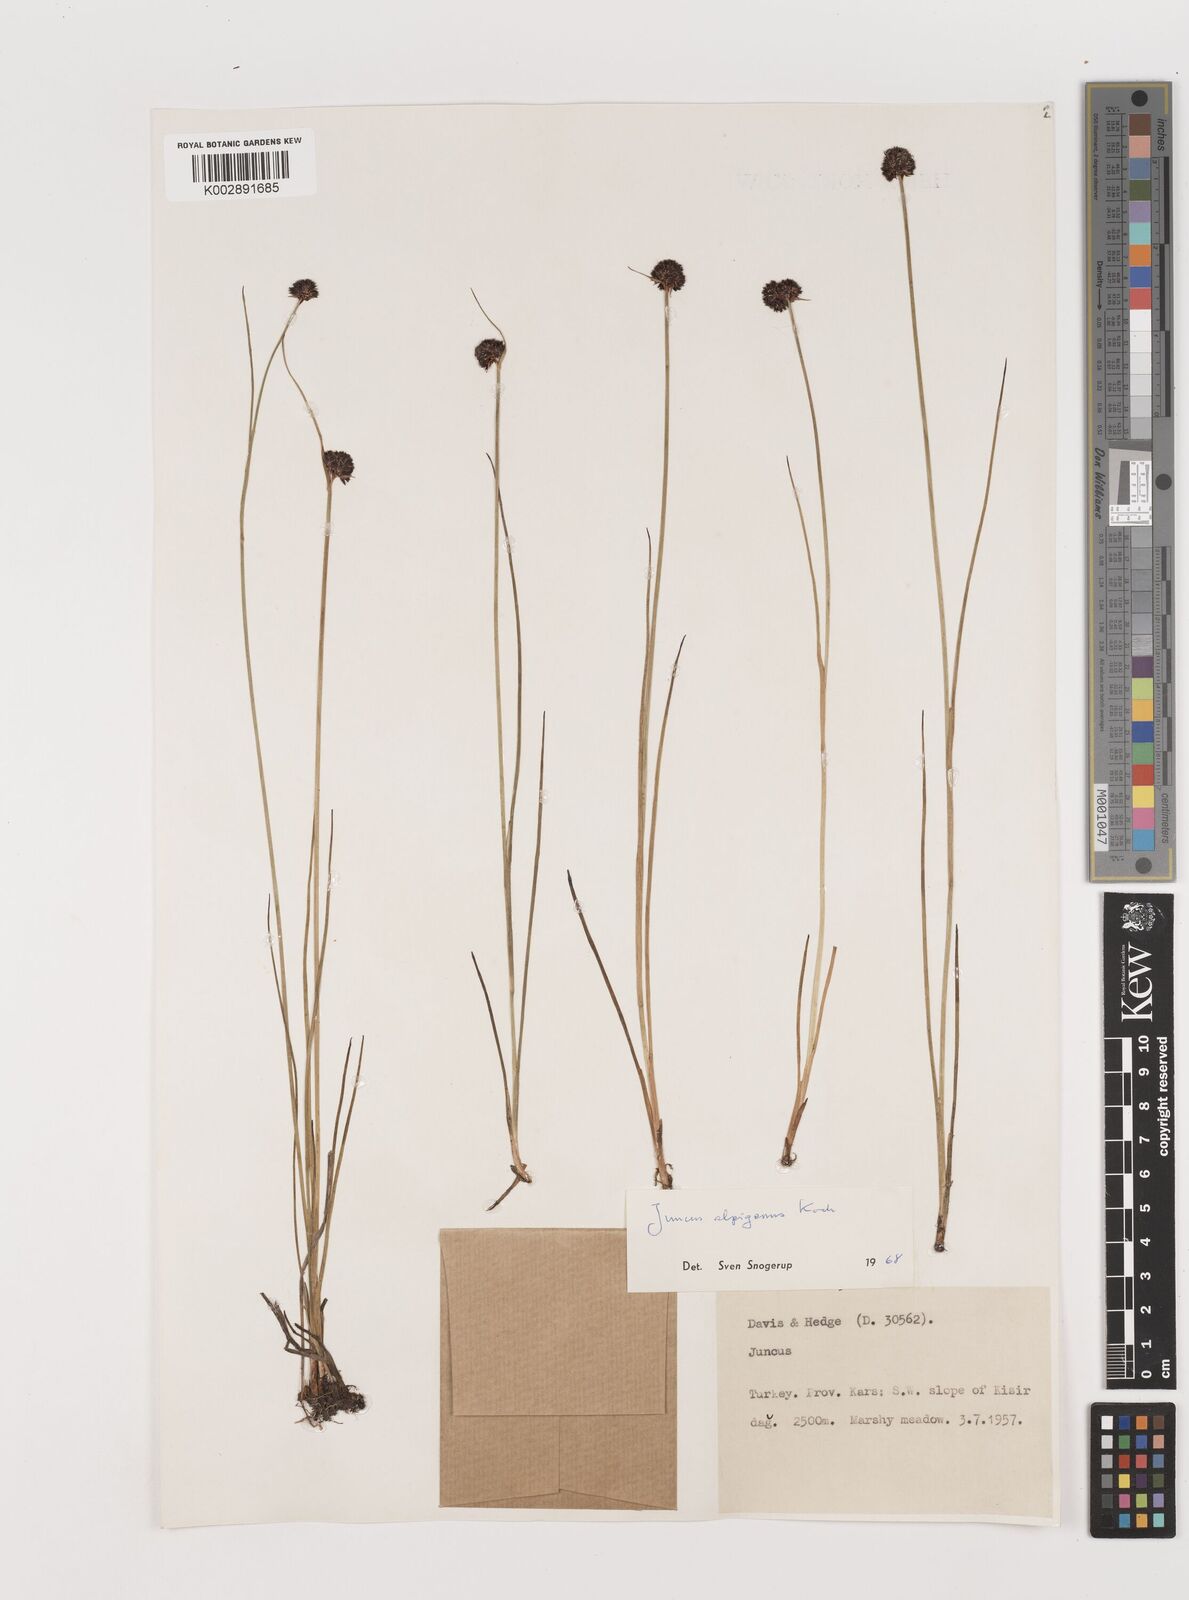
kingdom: Plantae
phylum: Tracheophyta
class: Liliopsida
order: Poales
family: Juncaceae
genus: Juncus
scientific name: Juncus alpigenus
